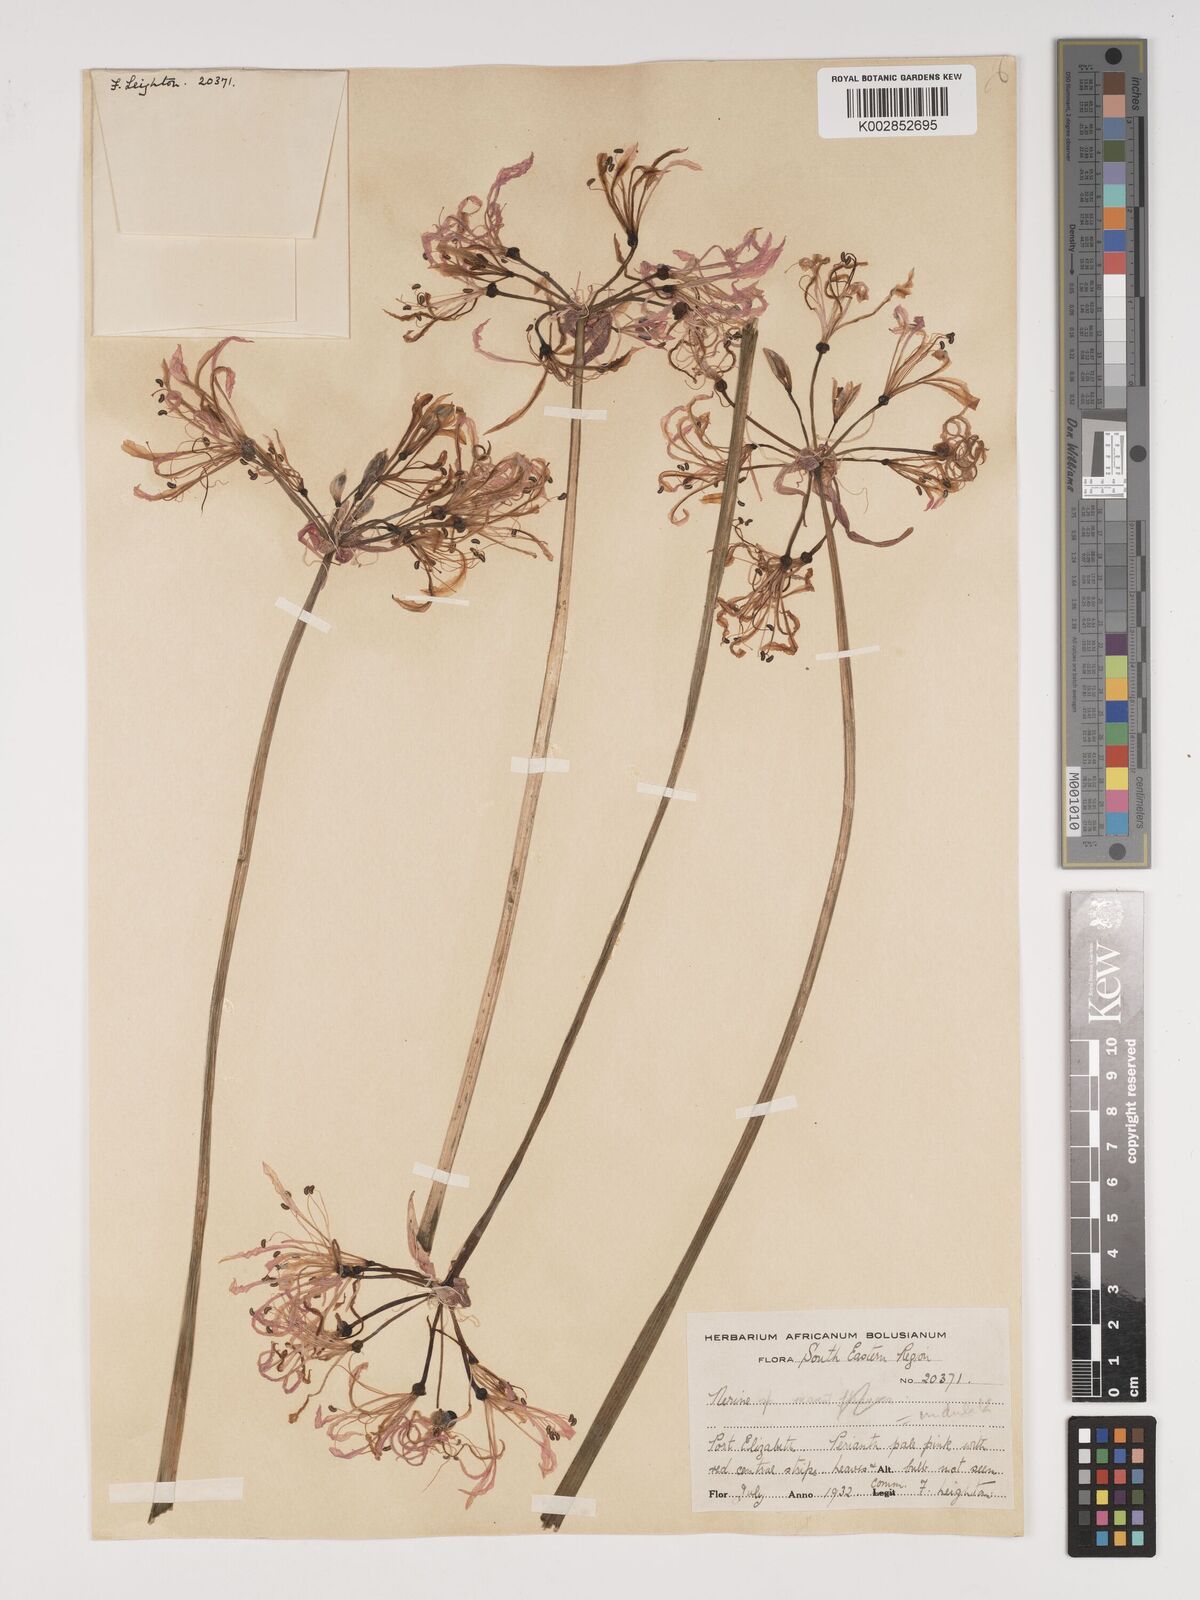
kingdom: Plantae
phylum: Tracheophyta
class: Liliopsida
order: Asparagales
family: Amaryllidaceae
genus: Nerine
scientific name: Nerine undulata
